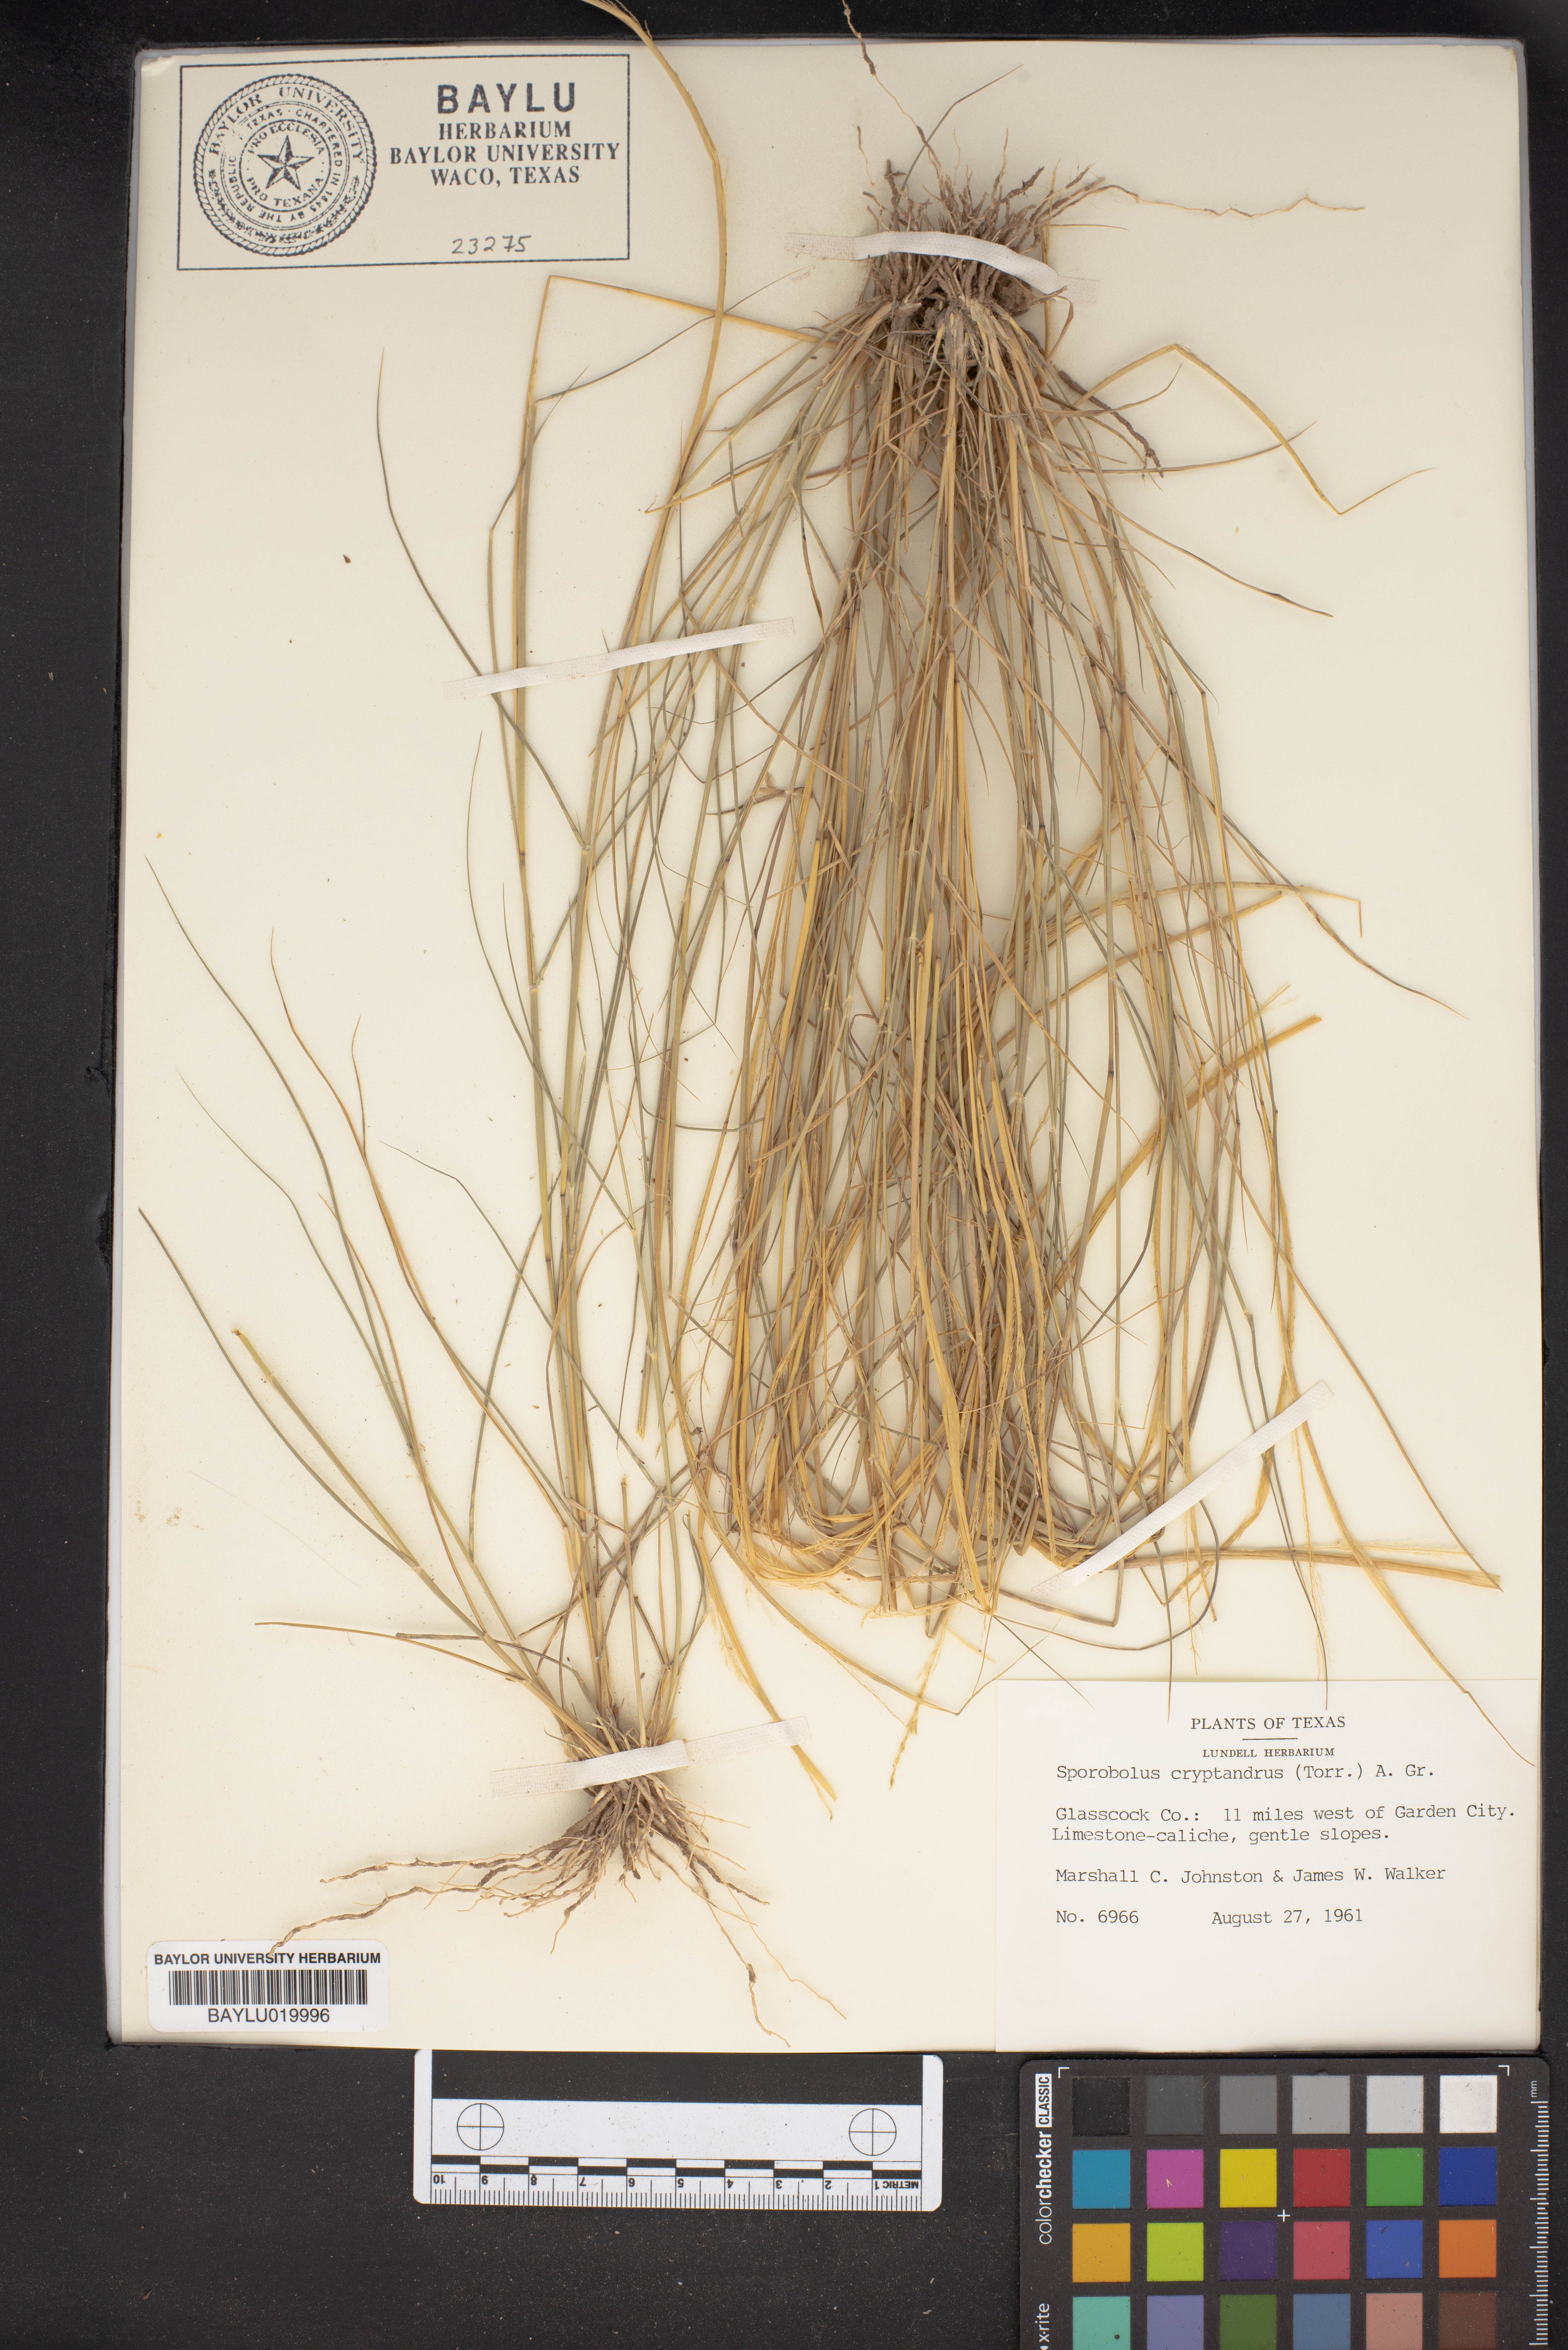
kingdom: Plantae
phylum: Tracheophyta
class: Liliopsida
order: Poales
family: Poaceae
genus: Sporobolus
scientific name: Sporobolus cryptandrus
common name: Sand dropseed
